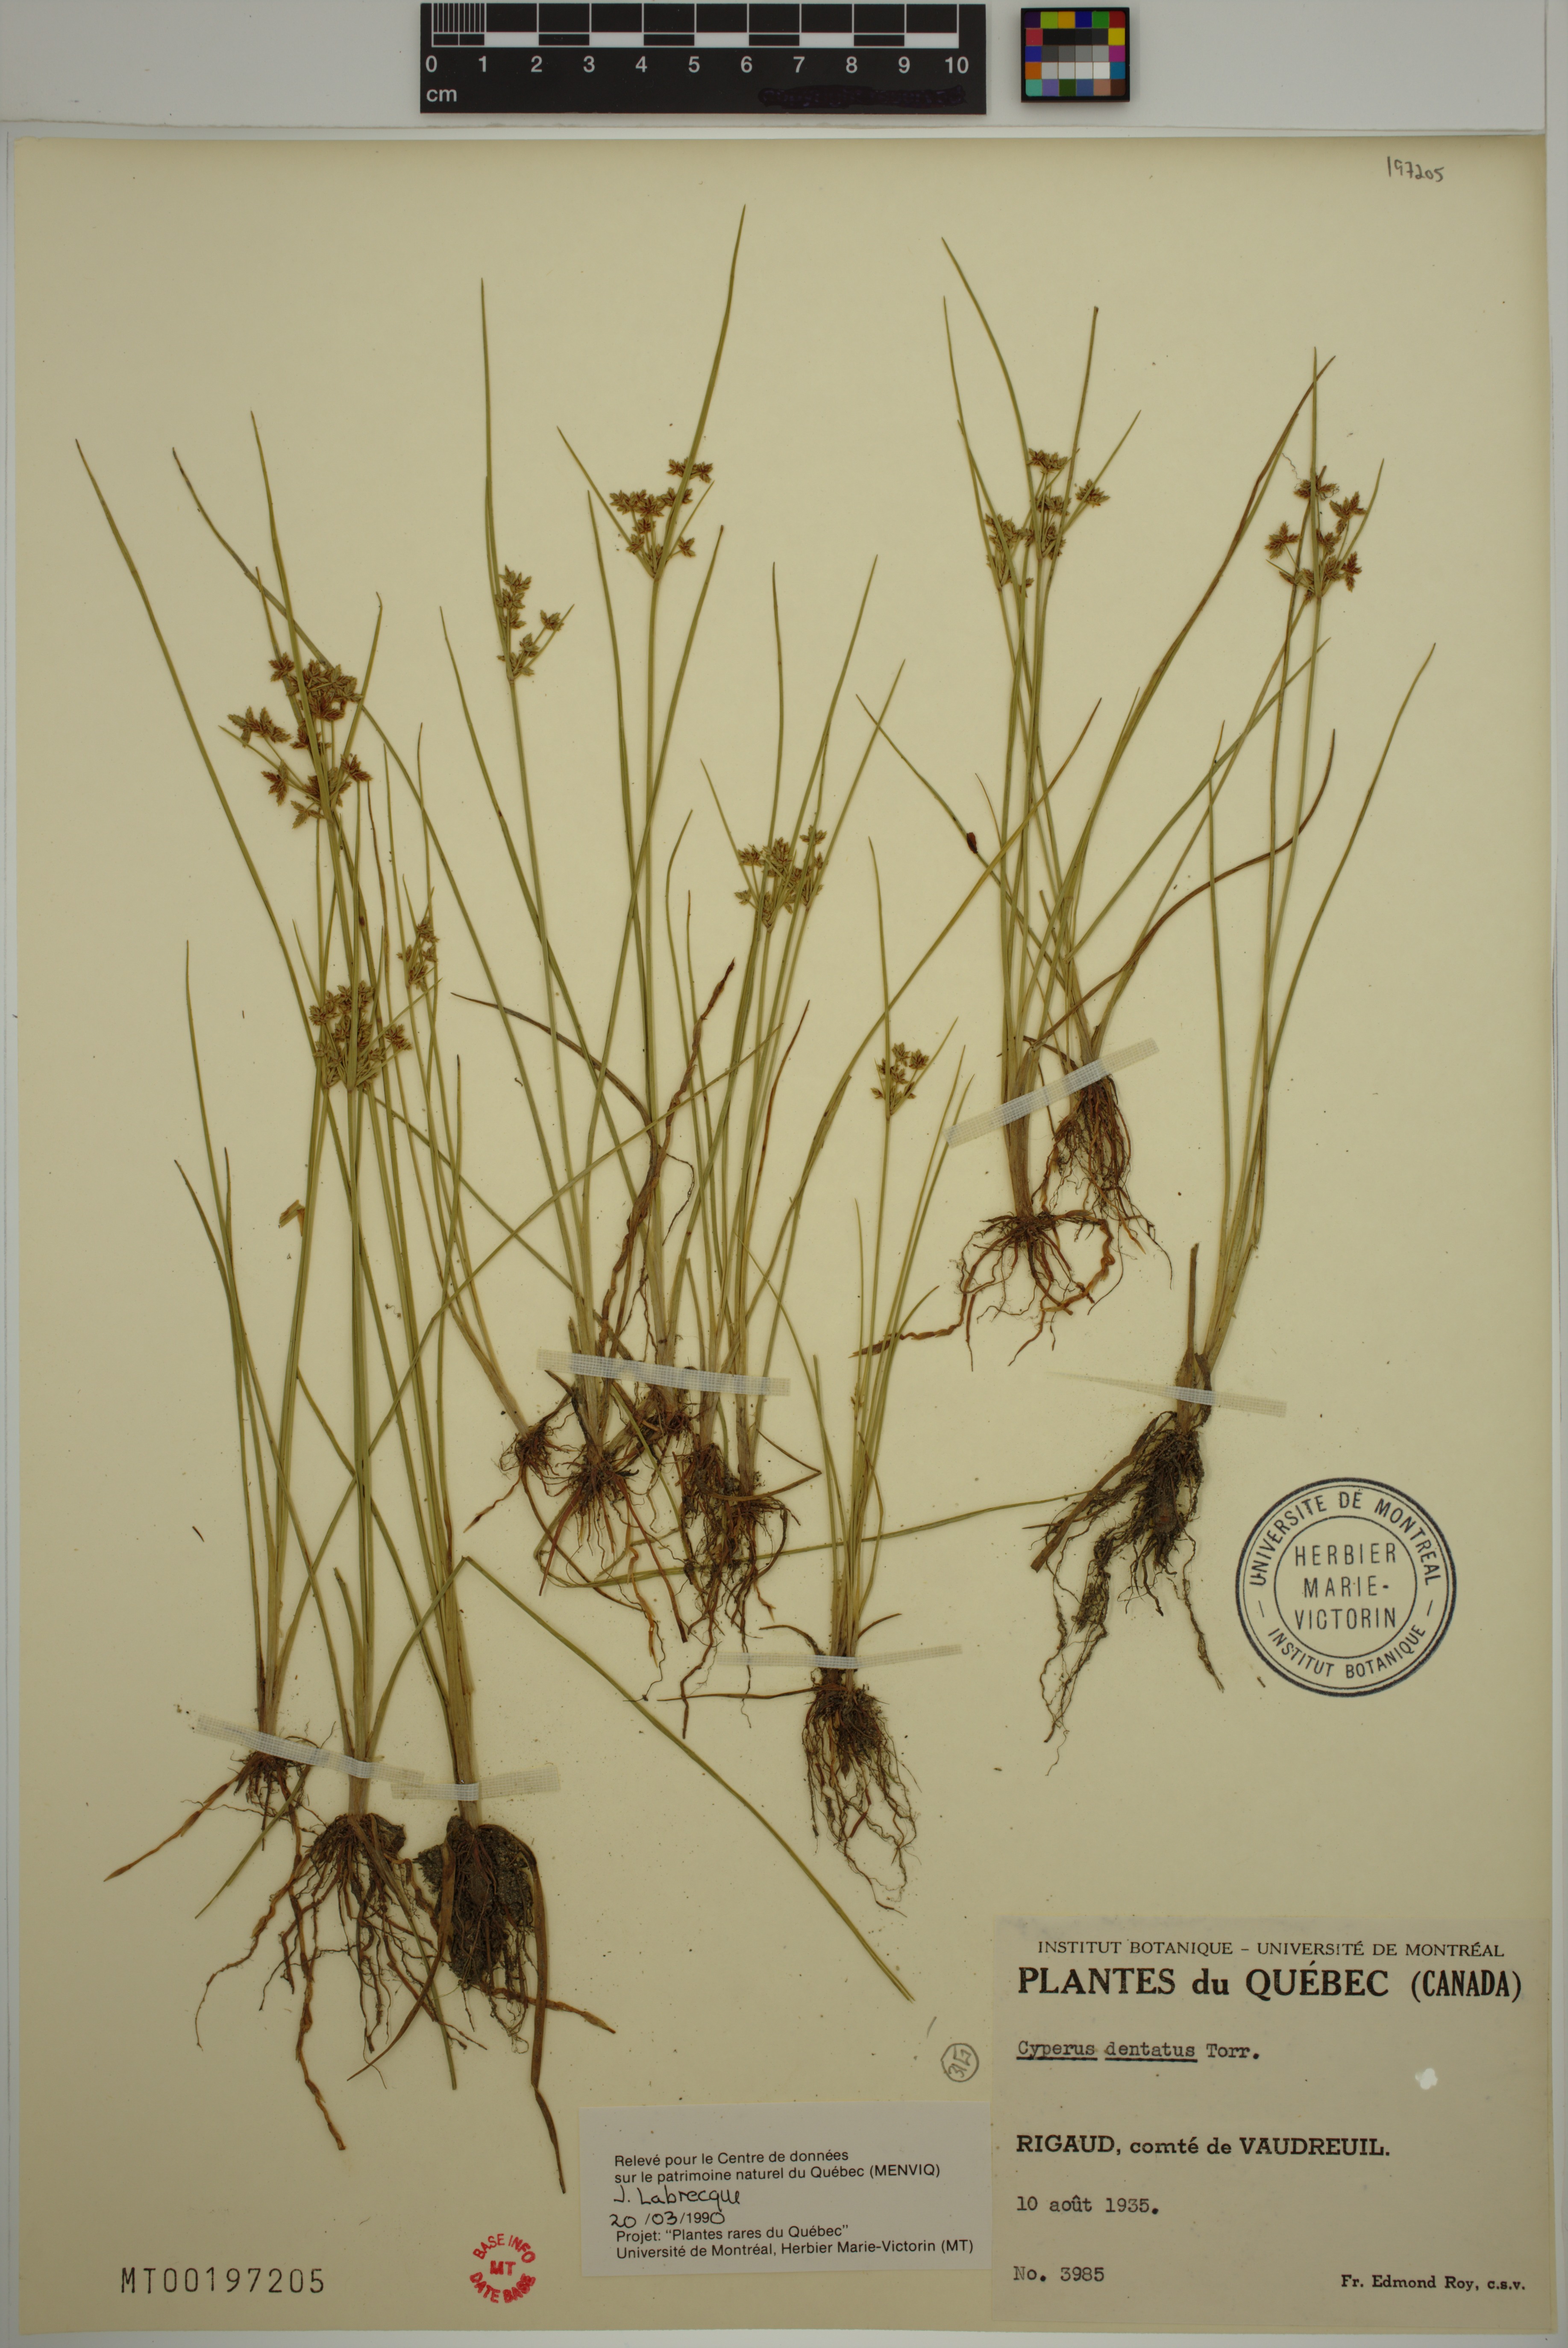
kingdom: Plantae
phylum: Tracheophyta
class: Liliopsida
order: Poales
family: Cyperaceae
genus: Cyperus
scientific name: Cyperus dentatus
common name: Dentate umbrella sedge
